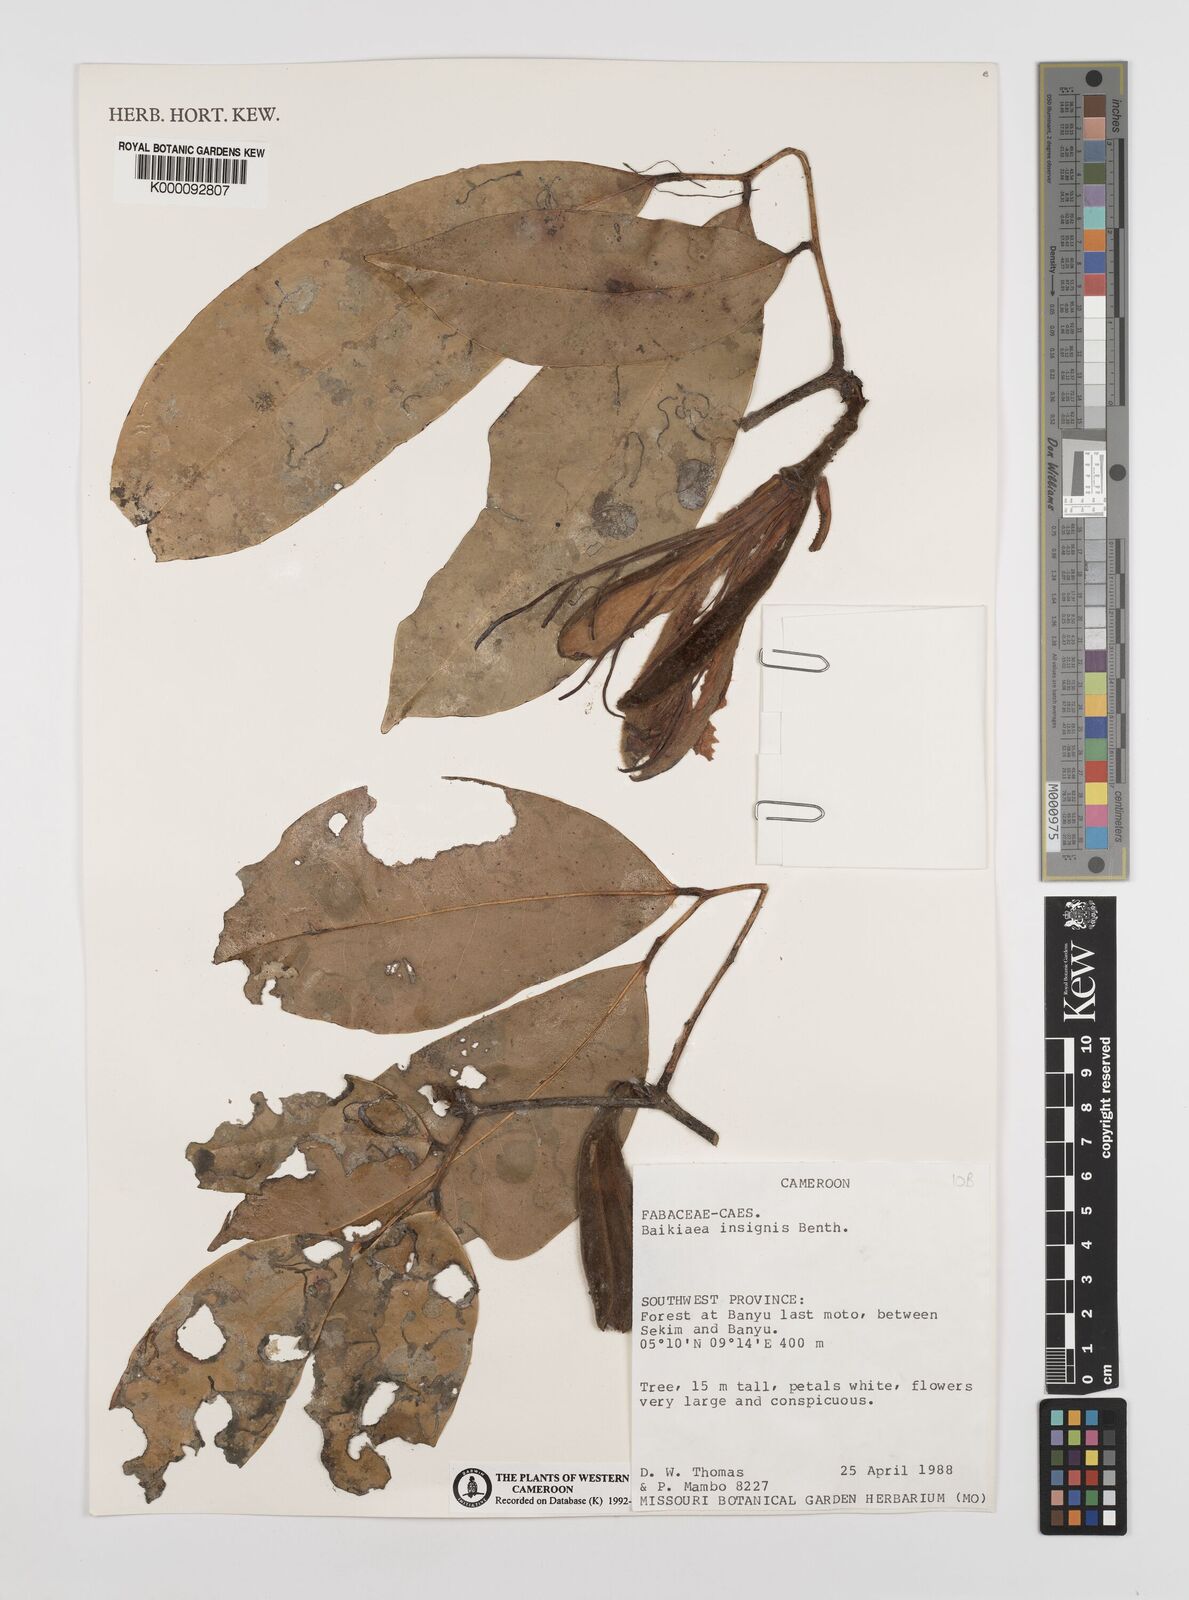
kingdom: Plantae
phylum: Tracheophyta
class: Magnoliopsida
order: Fabales
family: Fabaceae
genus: Baikiaea
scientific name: Baikiaea insignis
